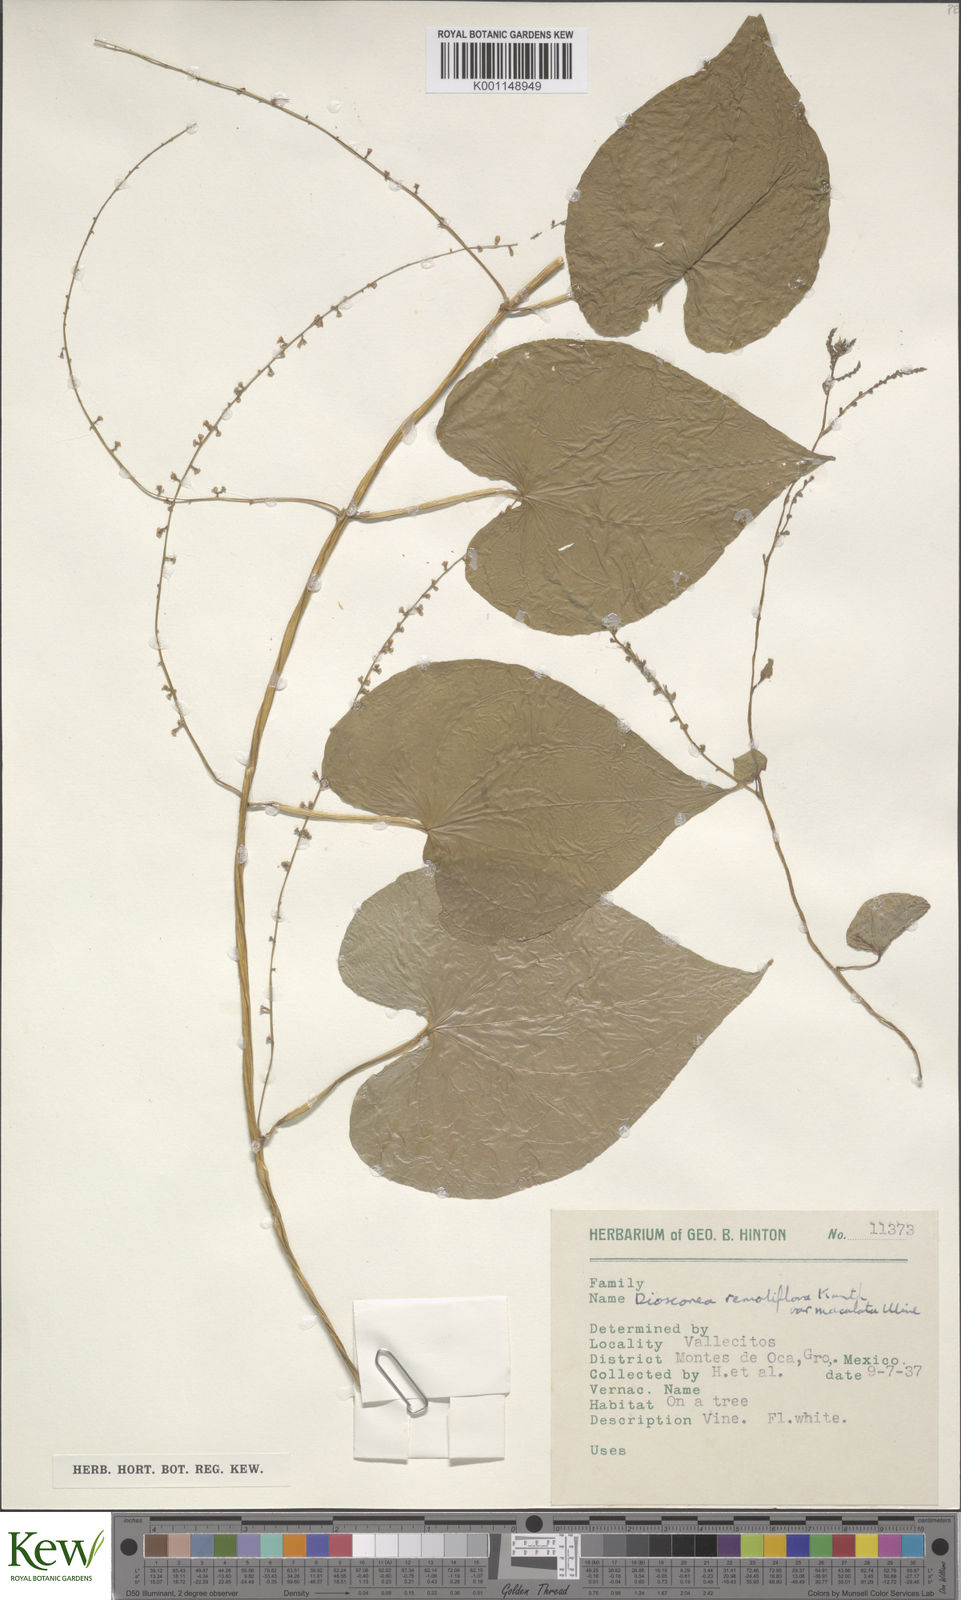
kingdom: Plantae
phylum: Tracheophyta
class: Liliopsida
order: Dioscoreales
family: Dioscoreaceae
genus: Dioscorea
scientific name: Dioscorea remotiflora
